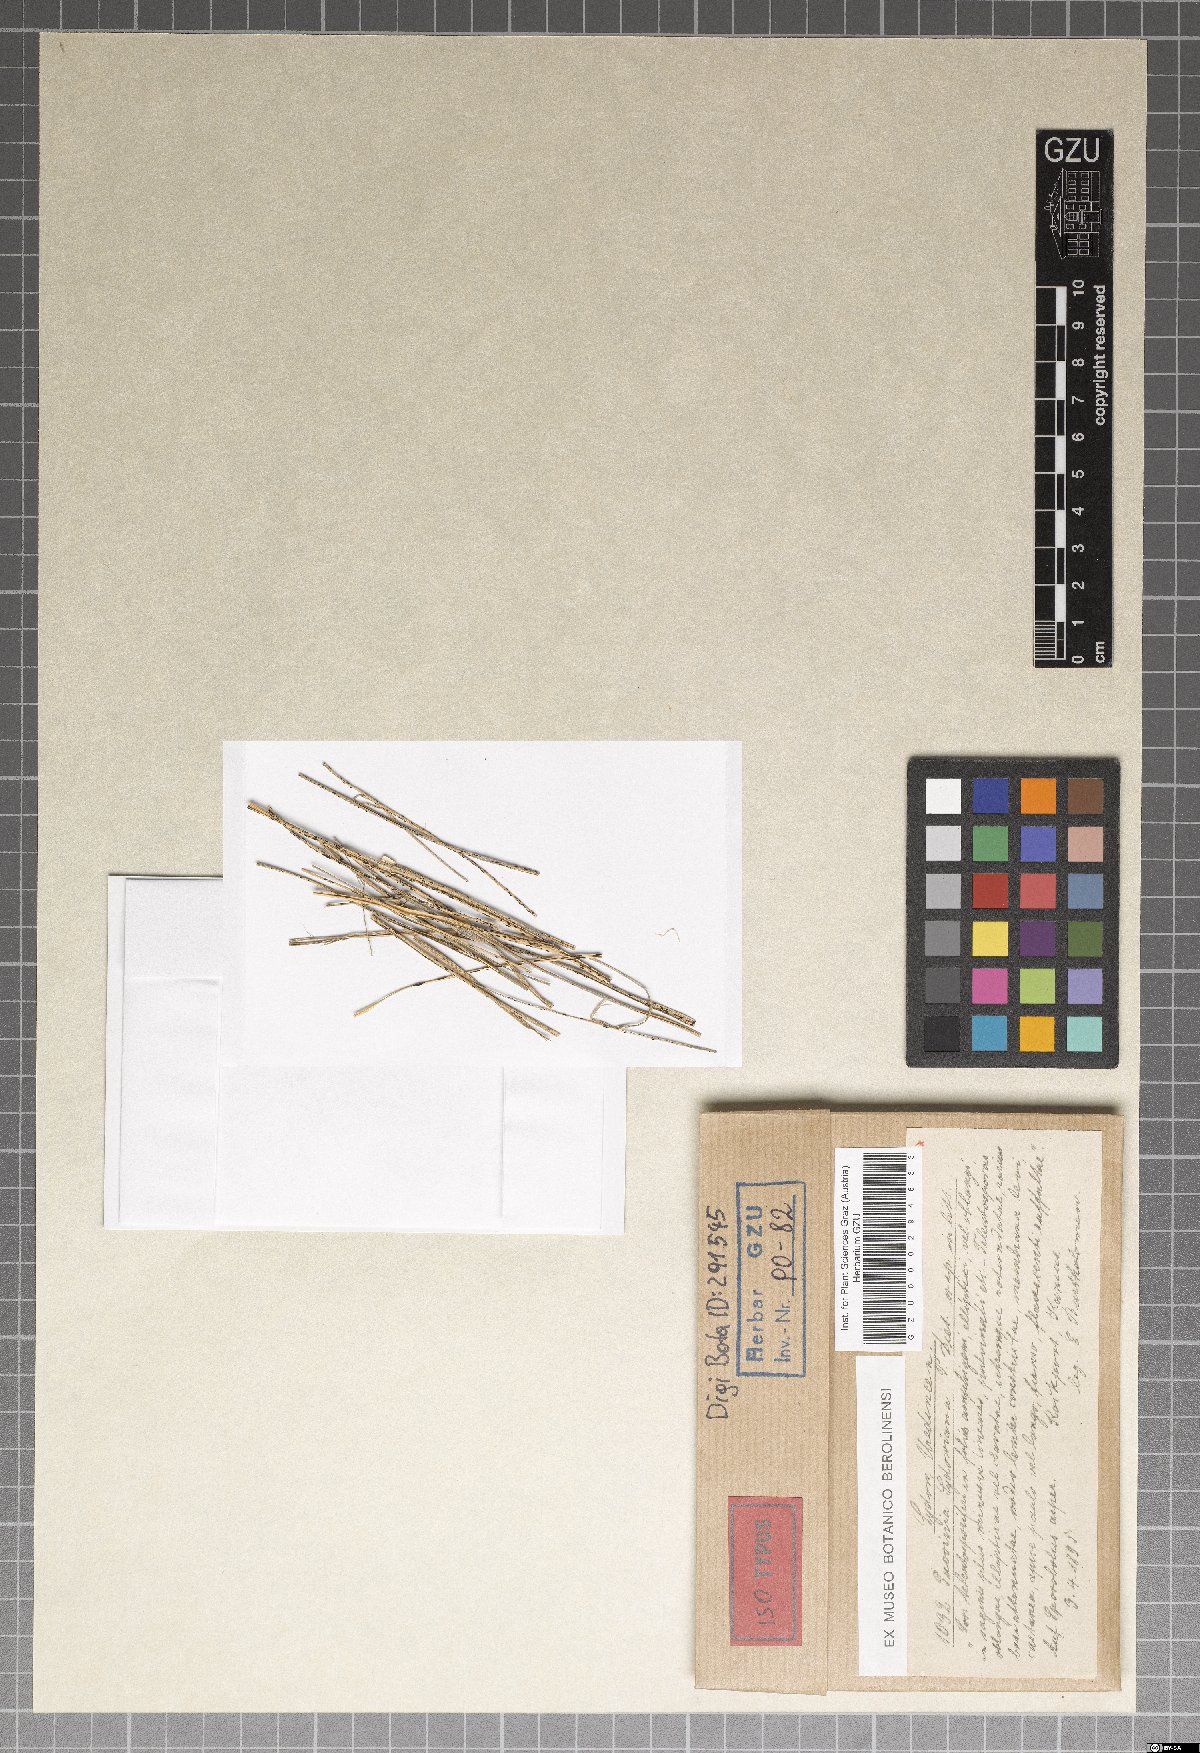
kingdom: Fungi
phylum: Basidiomycota
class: Pucciniomycetes
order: Pucciniales
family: Pucciniaceae
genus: Puccinia
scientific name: Puccinia sikokiana
